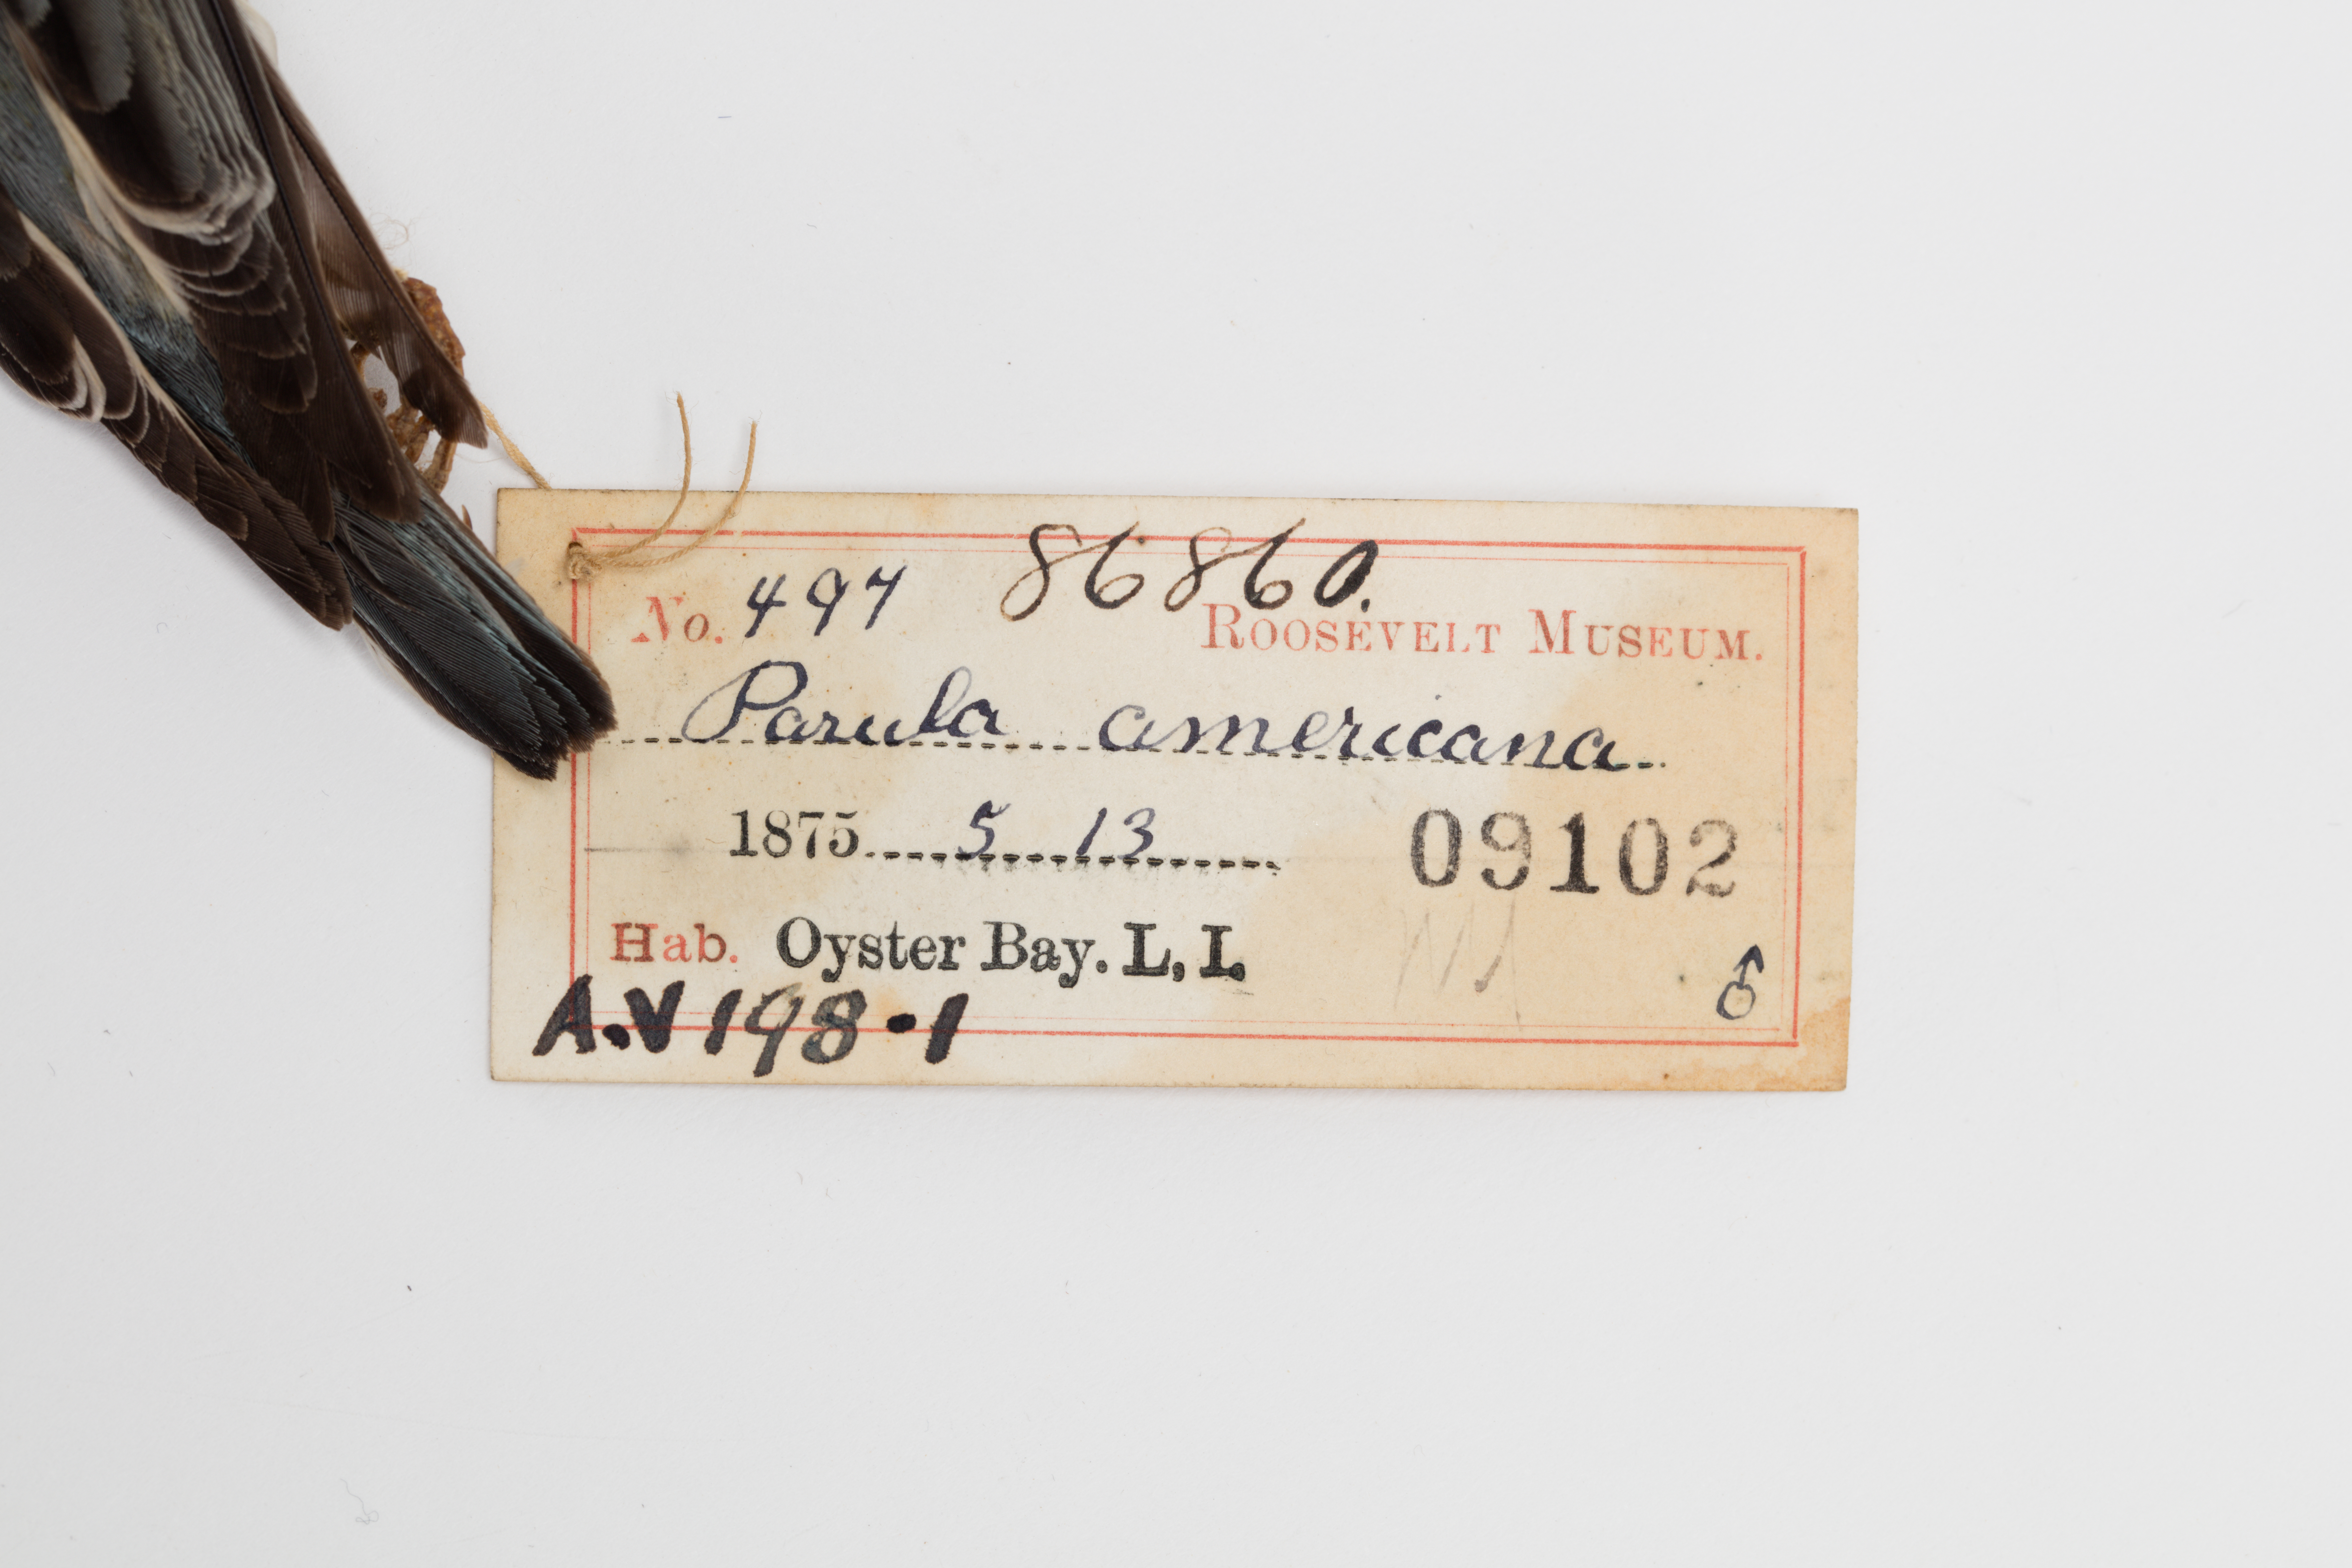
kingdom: Animalia
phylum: Chordata
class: Aves
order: Passeriformes
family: Parulidae
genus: Setophaga
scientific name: Setophaga americana
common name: Northern parula
